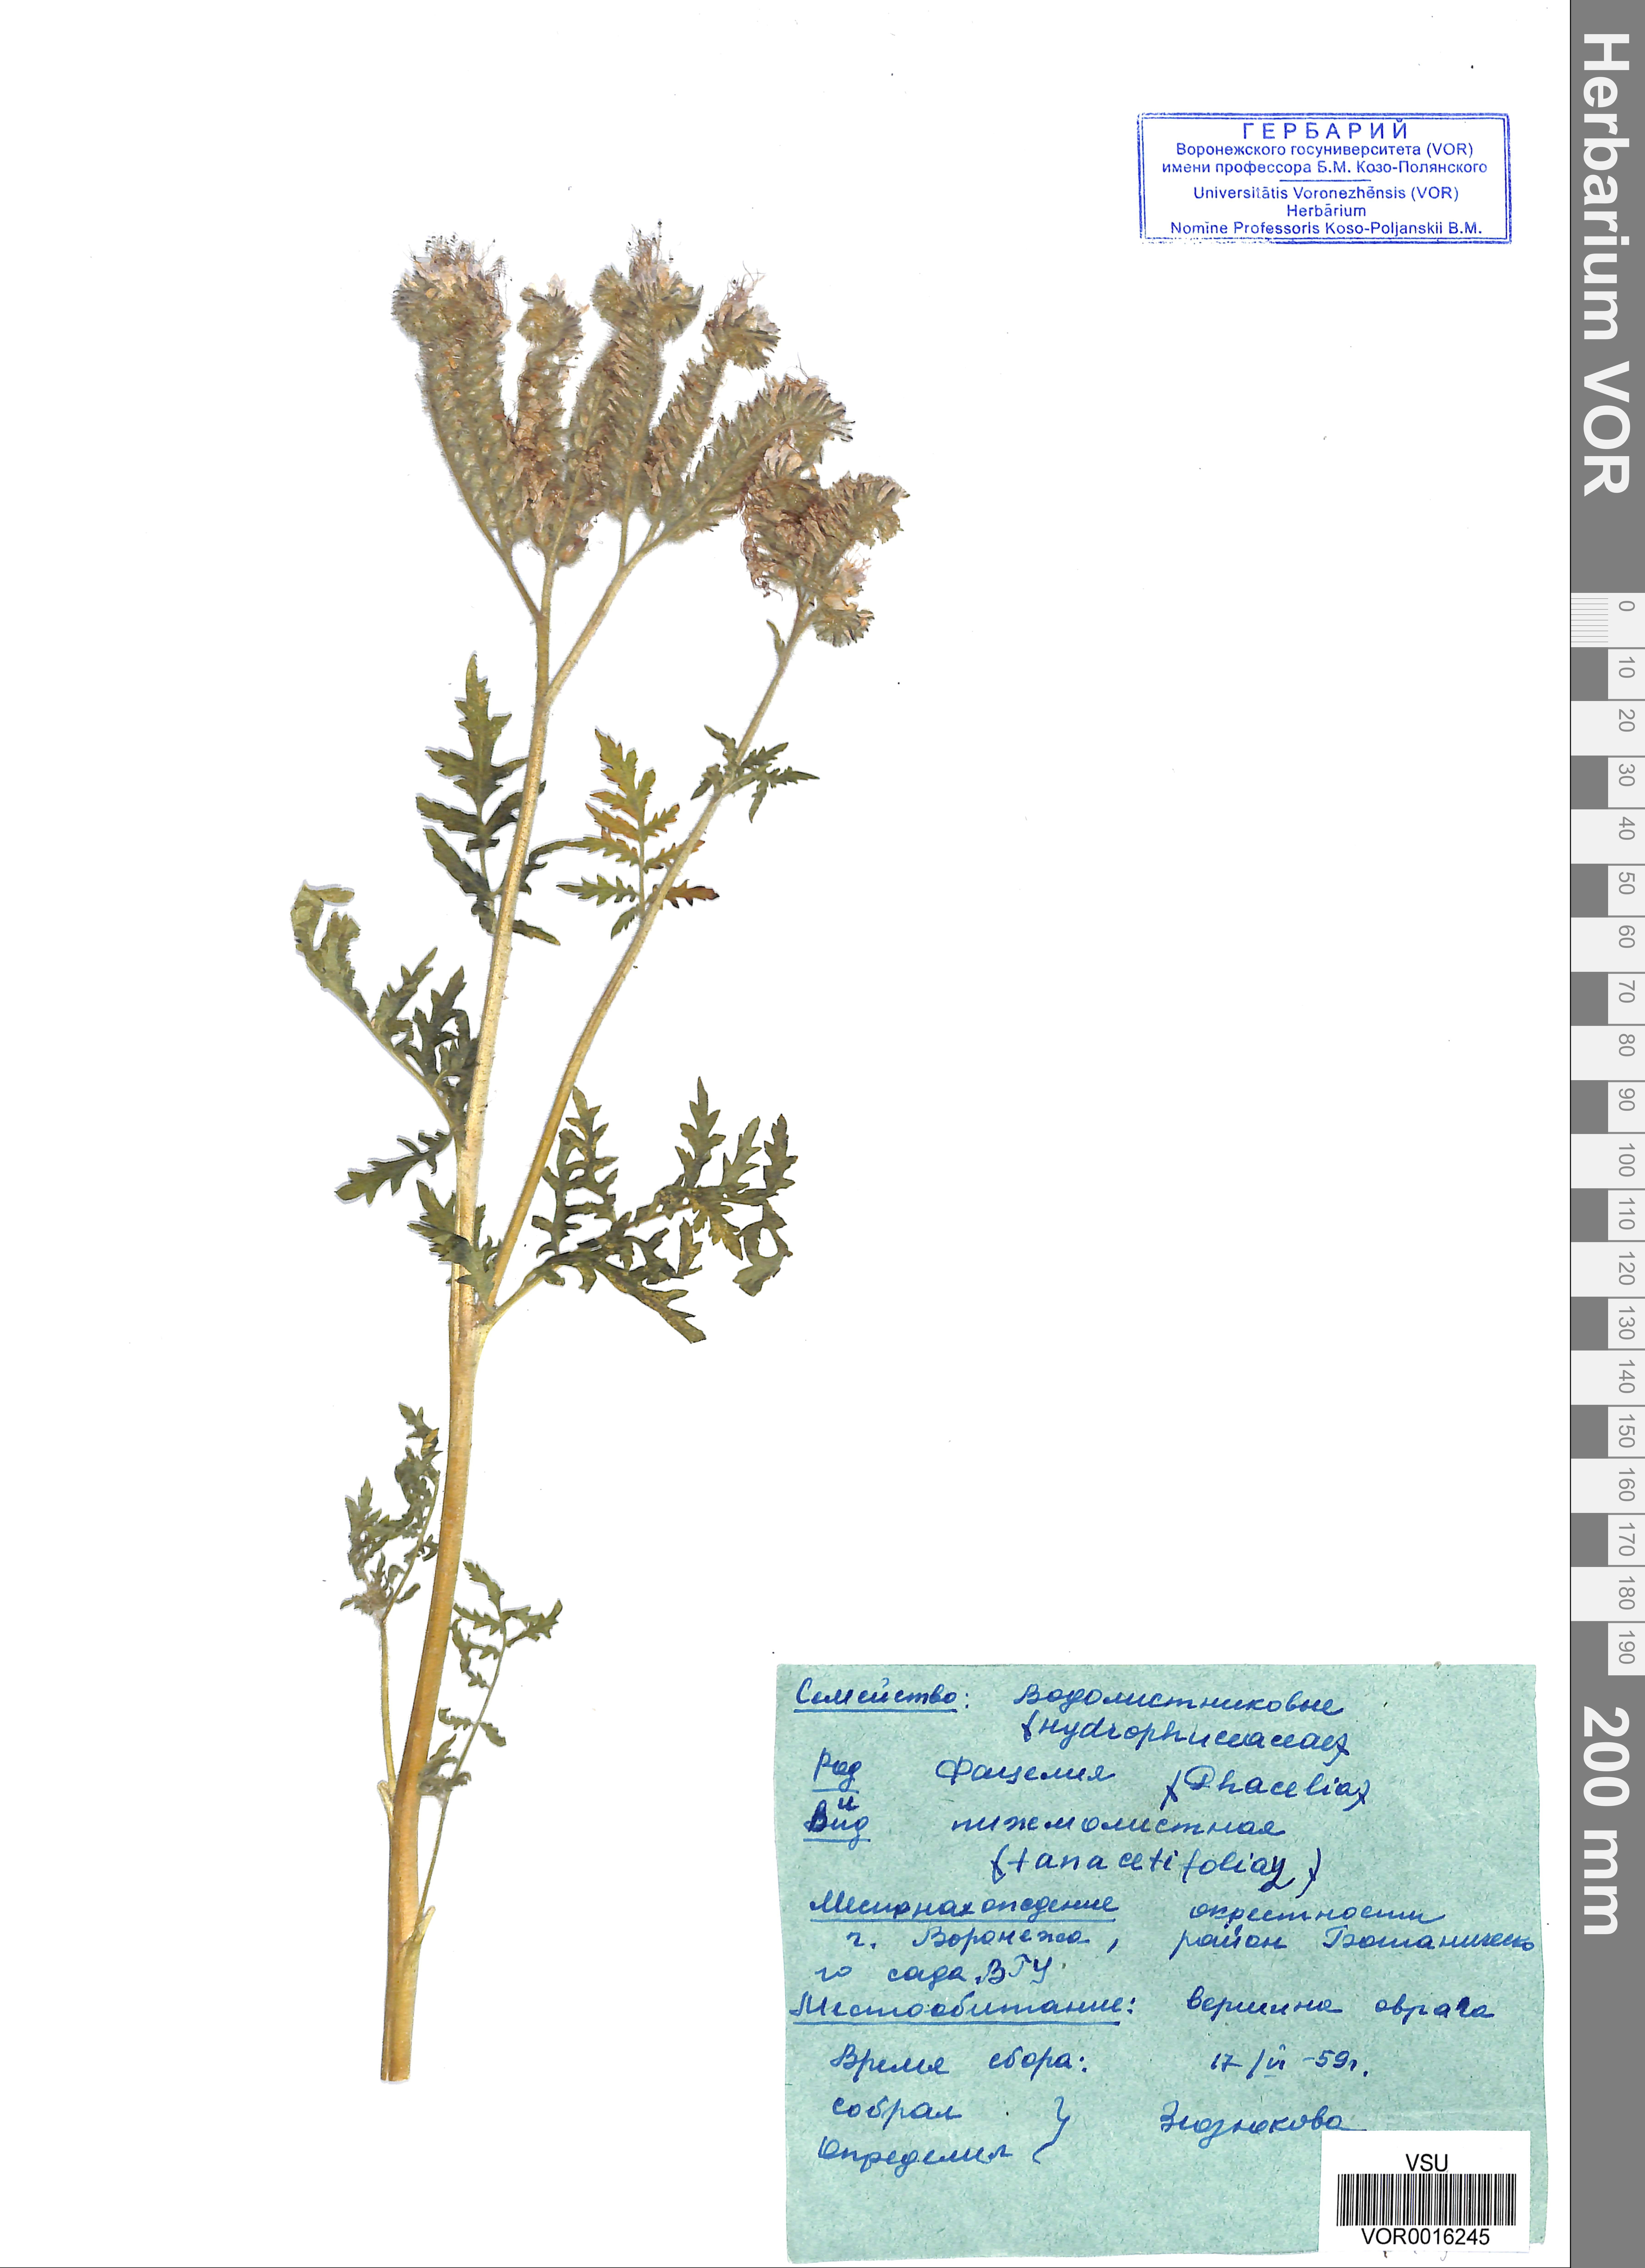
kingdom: Plantae
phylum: Tracheophyta
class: Magnoliopsida
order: Boraginales
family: Hydrophyllaceae
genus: Phacelia
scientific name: Phacelia tanacetifolia
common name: Phacelia
